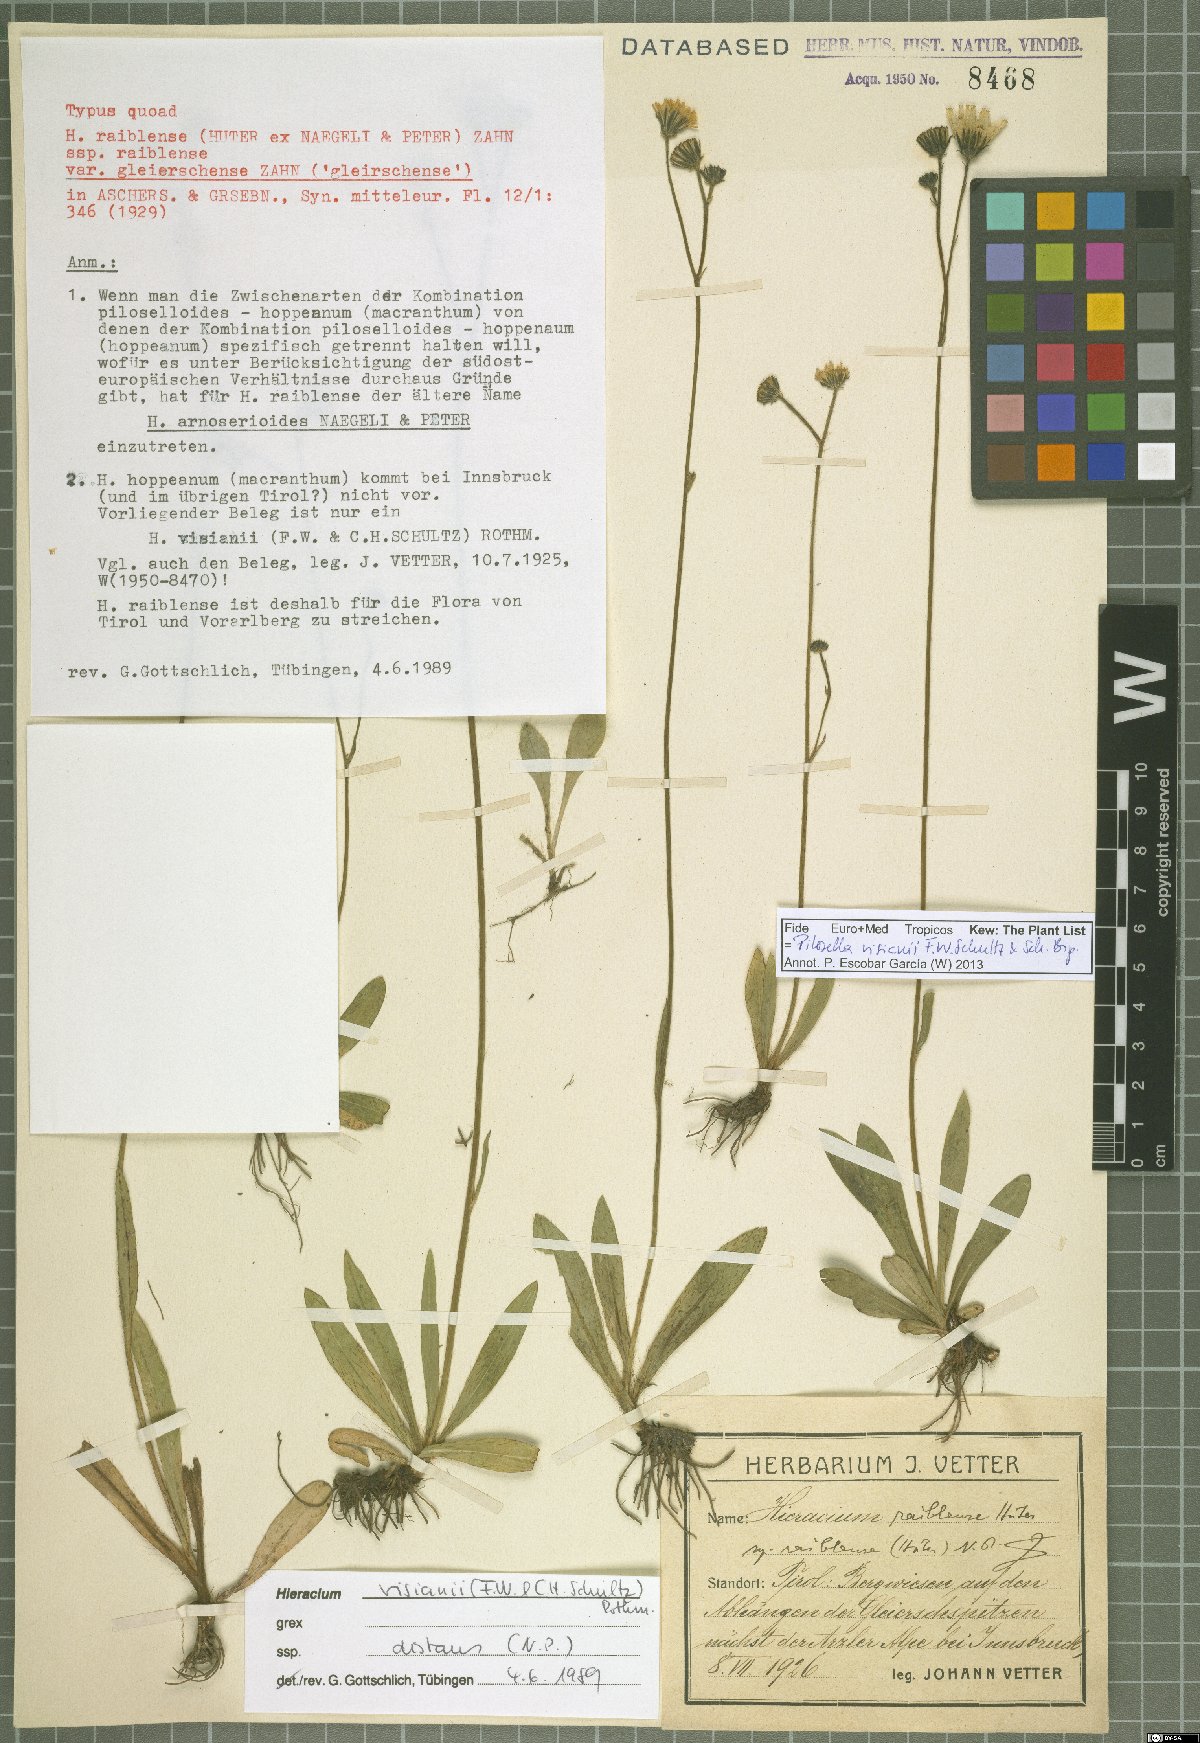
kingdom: Plantae
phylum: Tracheophyta
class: Magnoliopsida
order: Asterales
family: Asteraceae
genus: Pilosella
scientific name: Pilosella visianii
